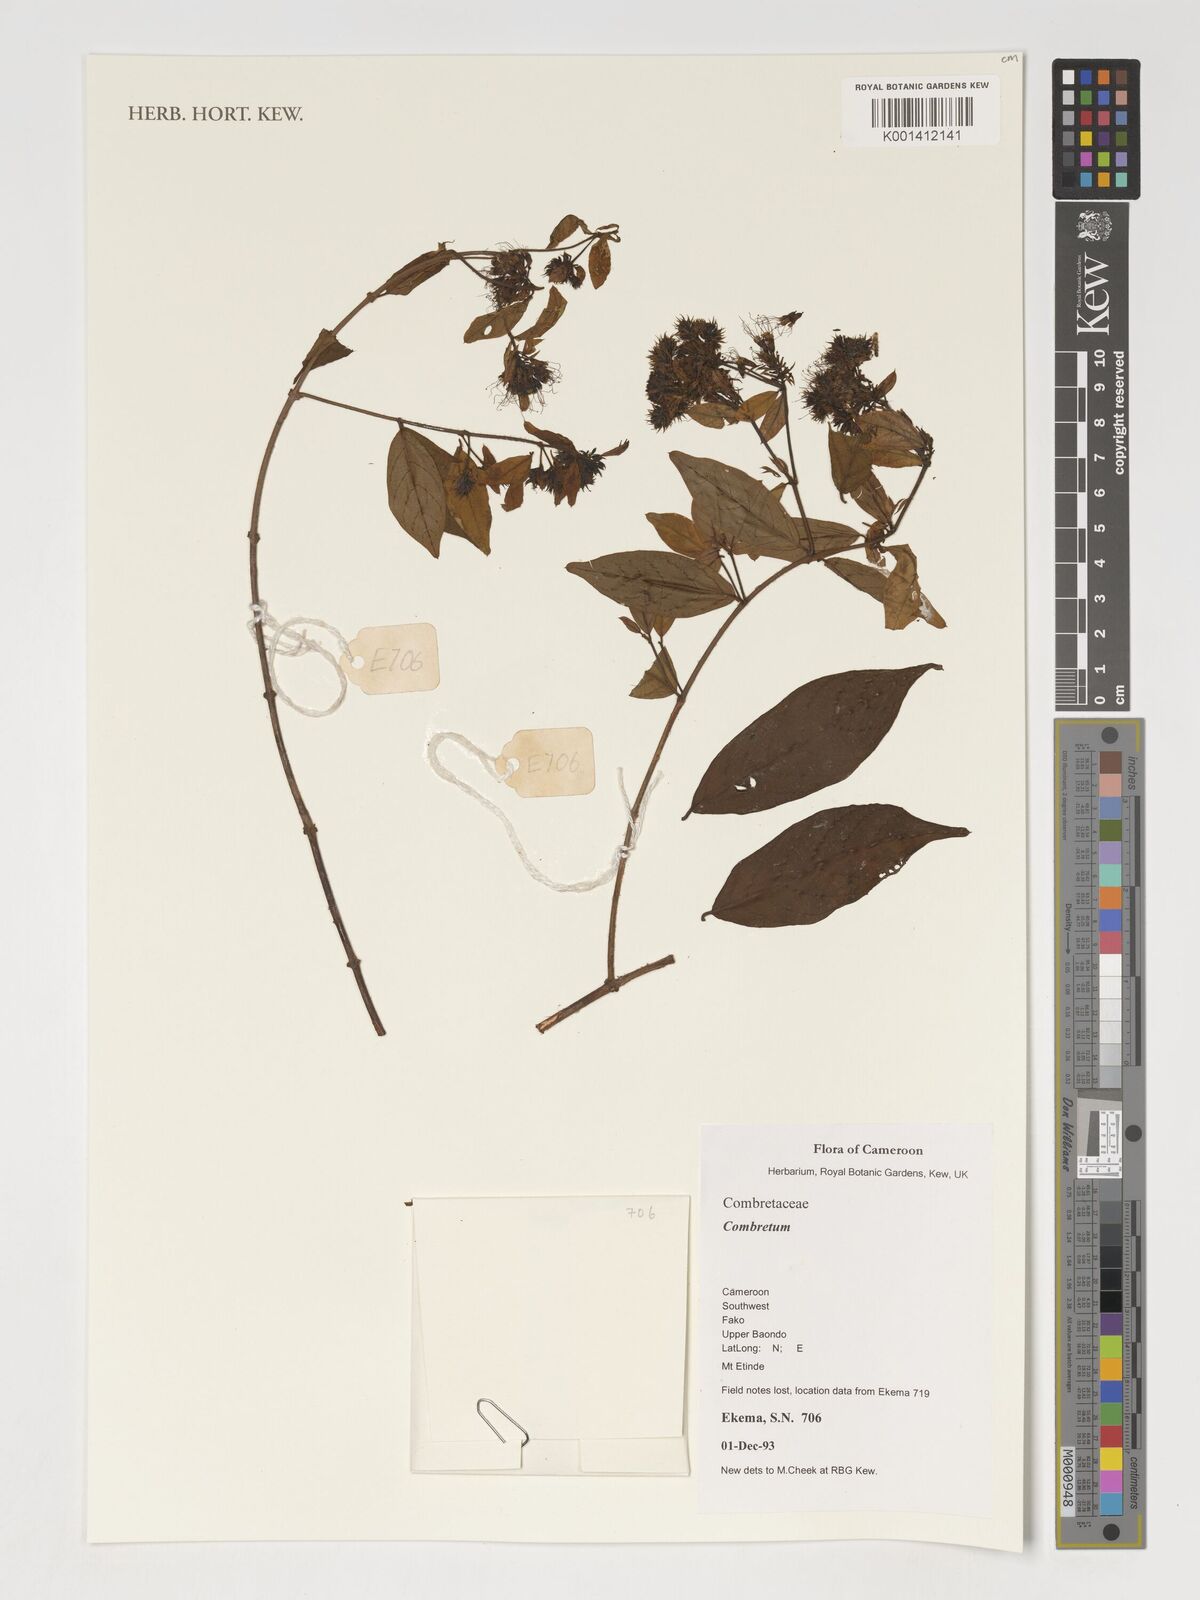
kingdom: Plantae
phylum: Tracheophyta
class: Magnoliopsida
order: Myrtales
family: Combretaceae
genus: Combretum
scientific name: Combretum
